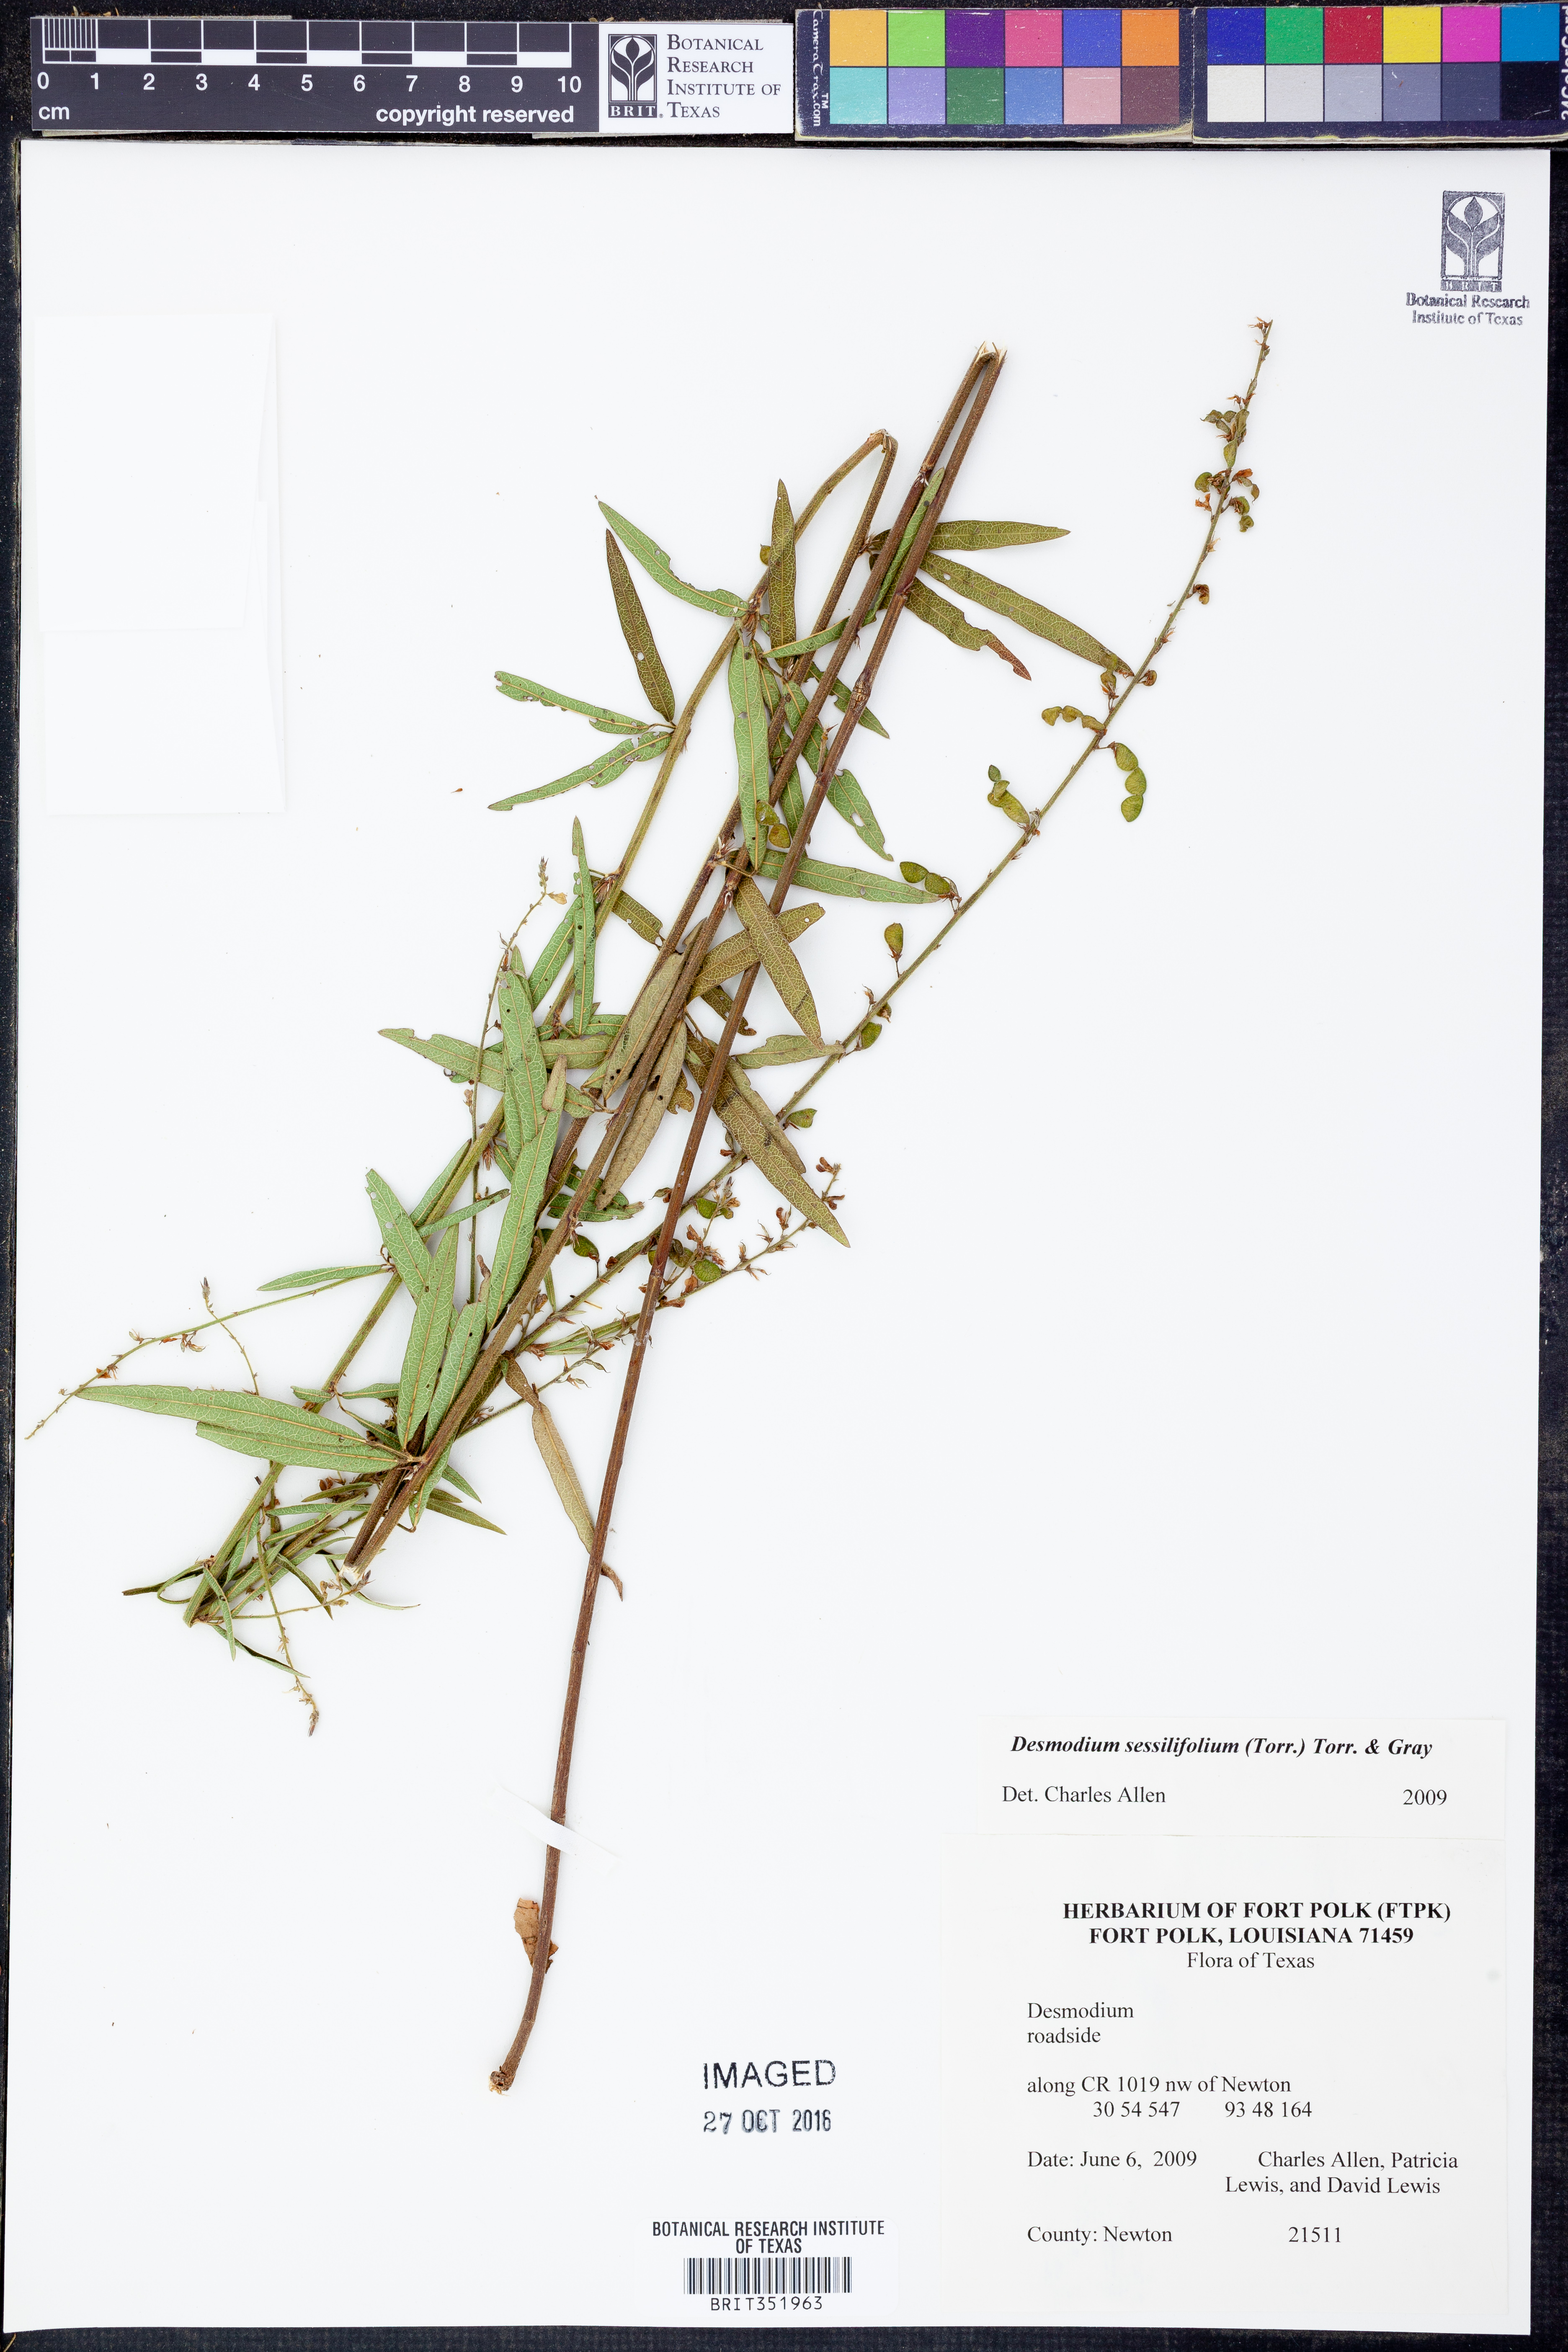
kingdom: Plantae
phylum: Tracheophyta
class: Magnoliopsida
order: Fabales
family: Fabaceae
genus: Desmodium
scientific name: Desmodium sessilifolium
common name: Sessile tick-clover
